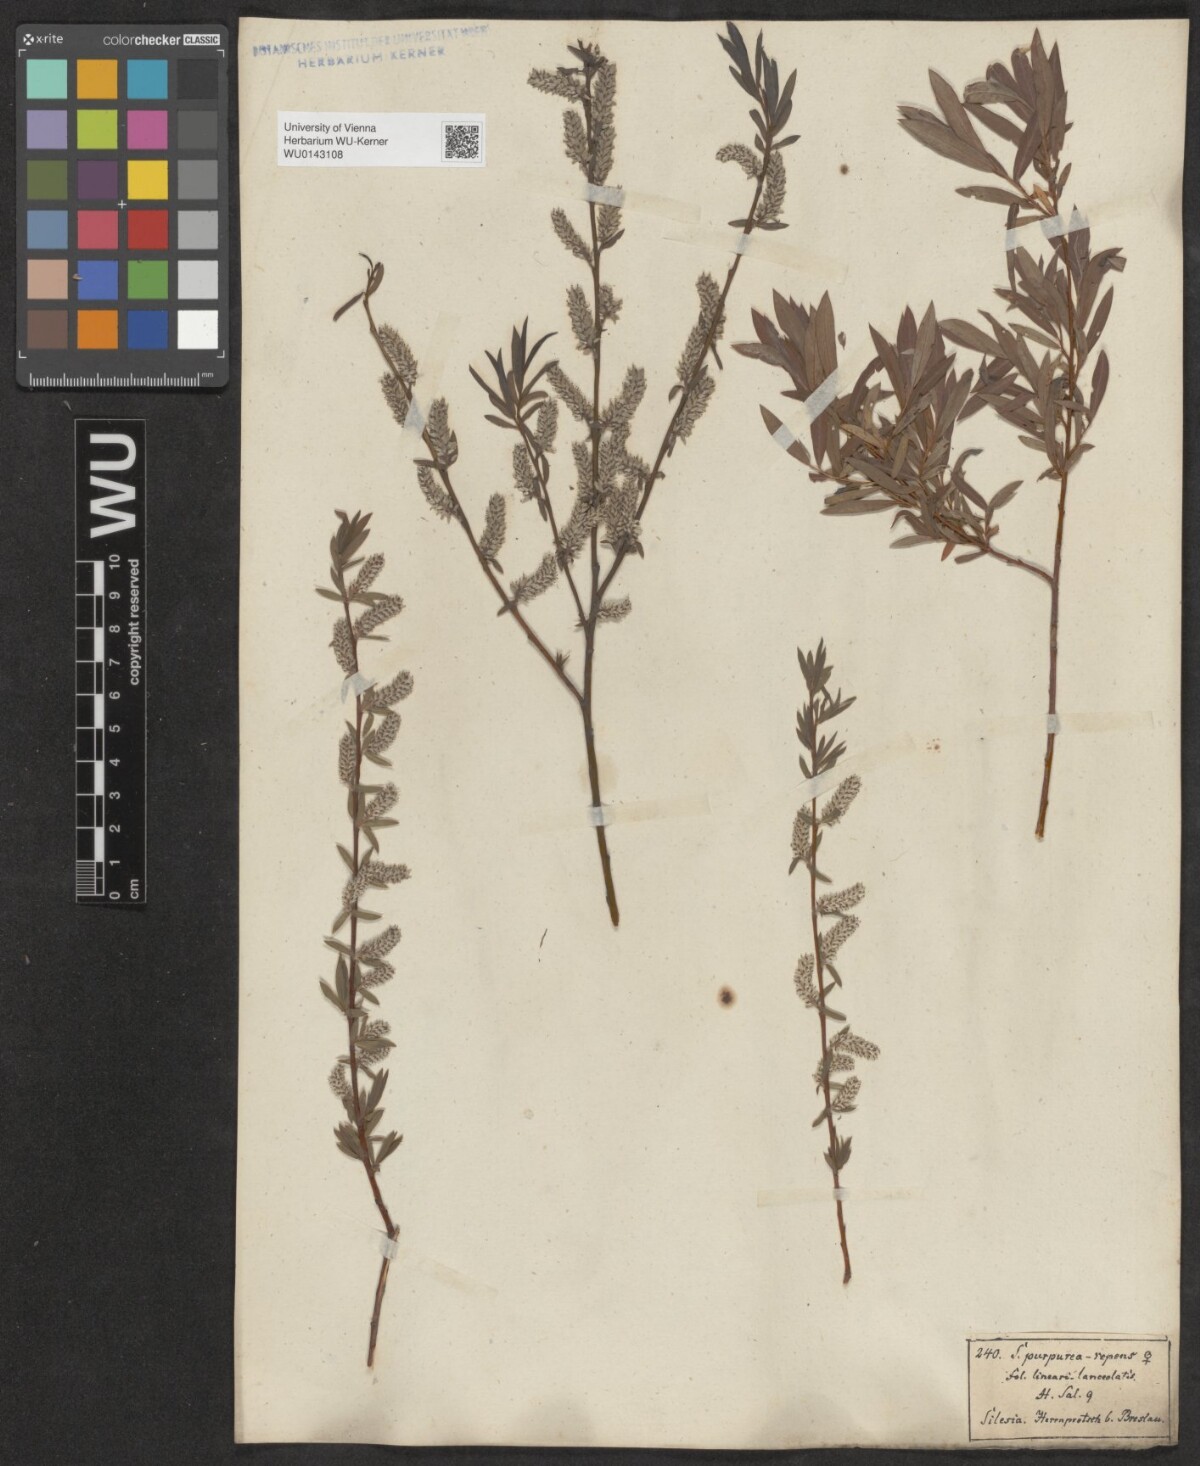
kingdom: Plantae
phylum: Tracheophyta
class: Magnoliopsida
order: Malpighiales
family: Salicaceae
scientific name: Salicaceae
